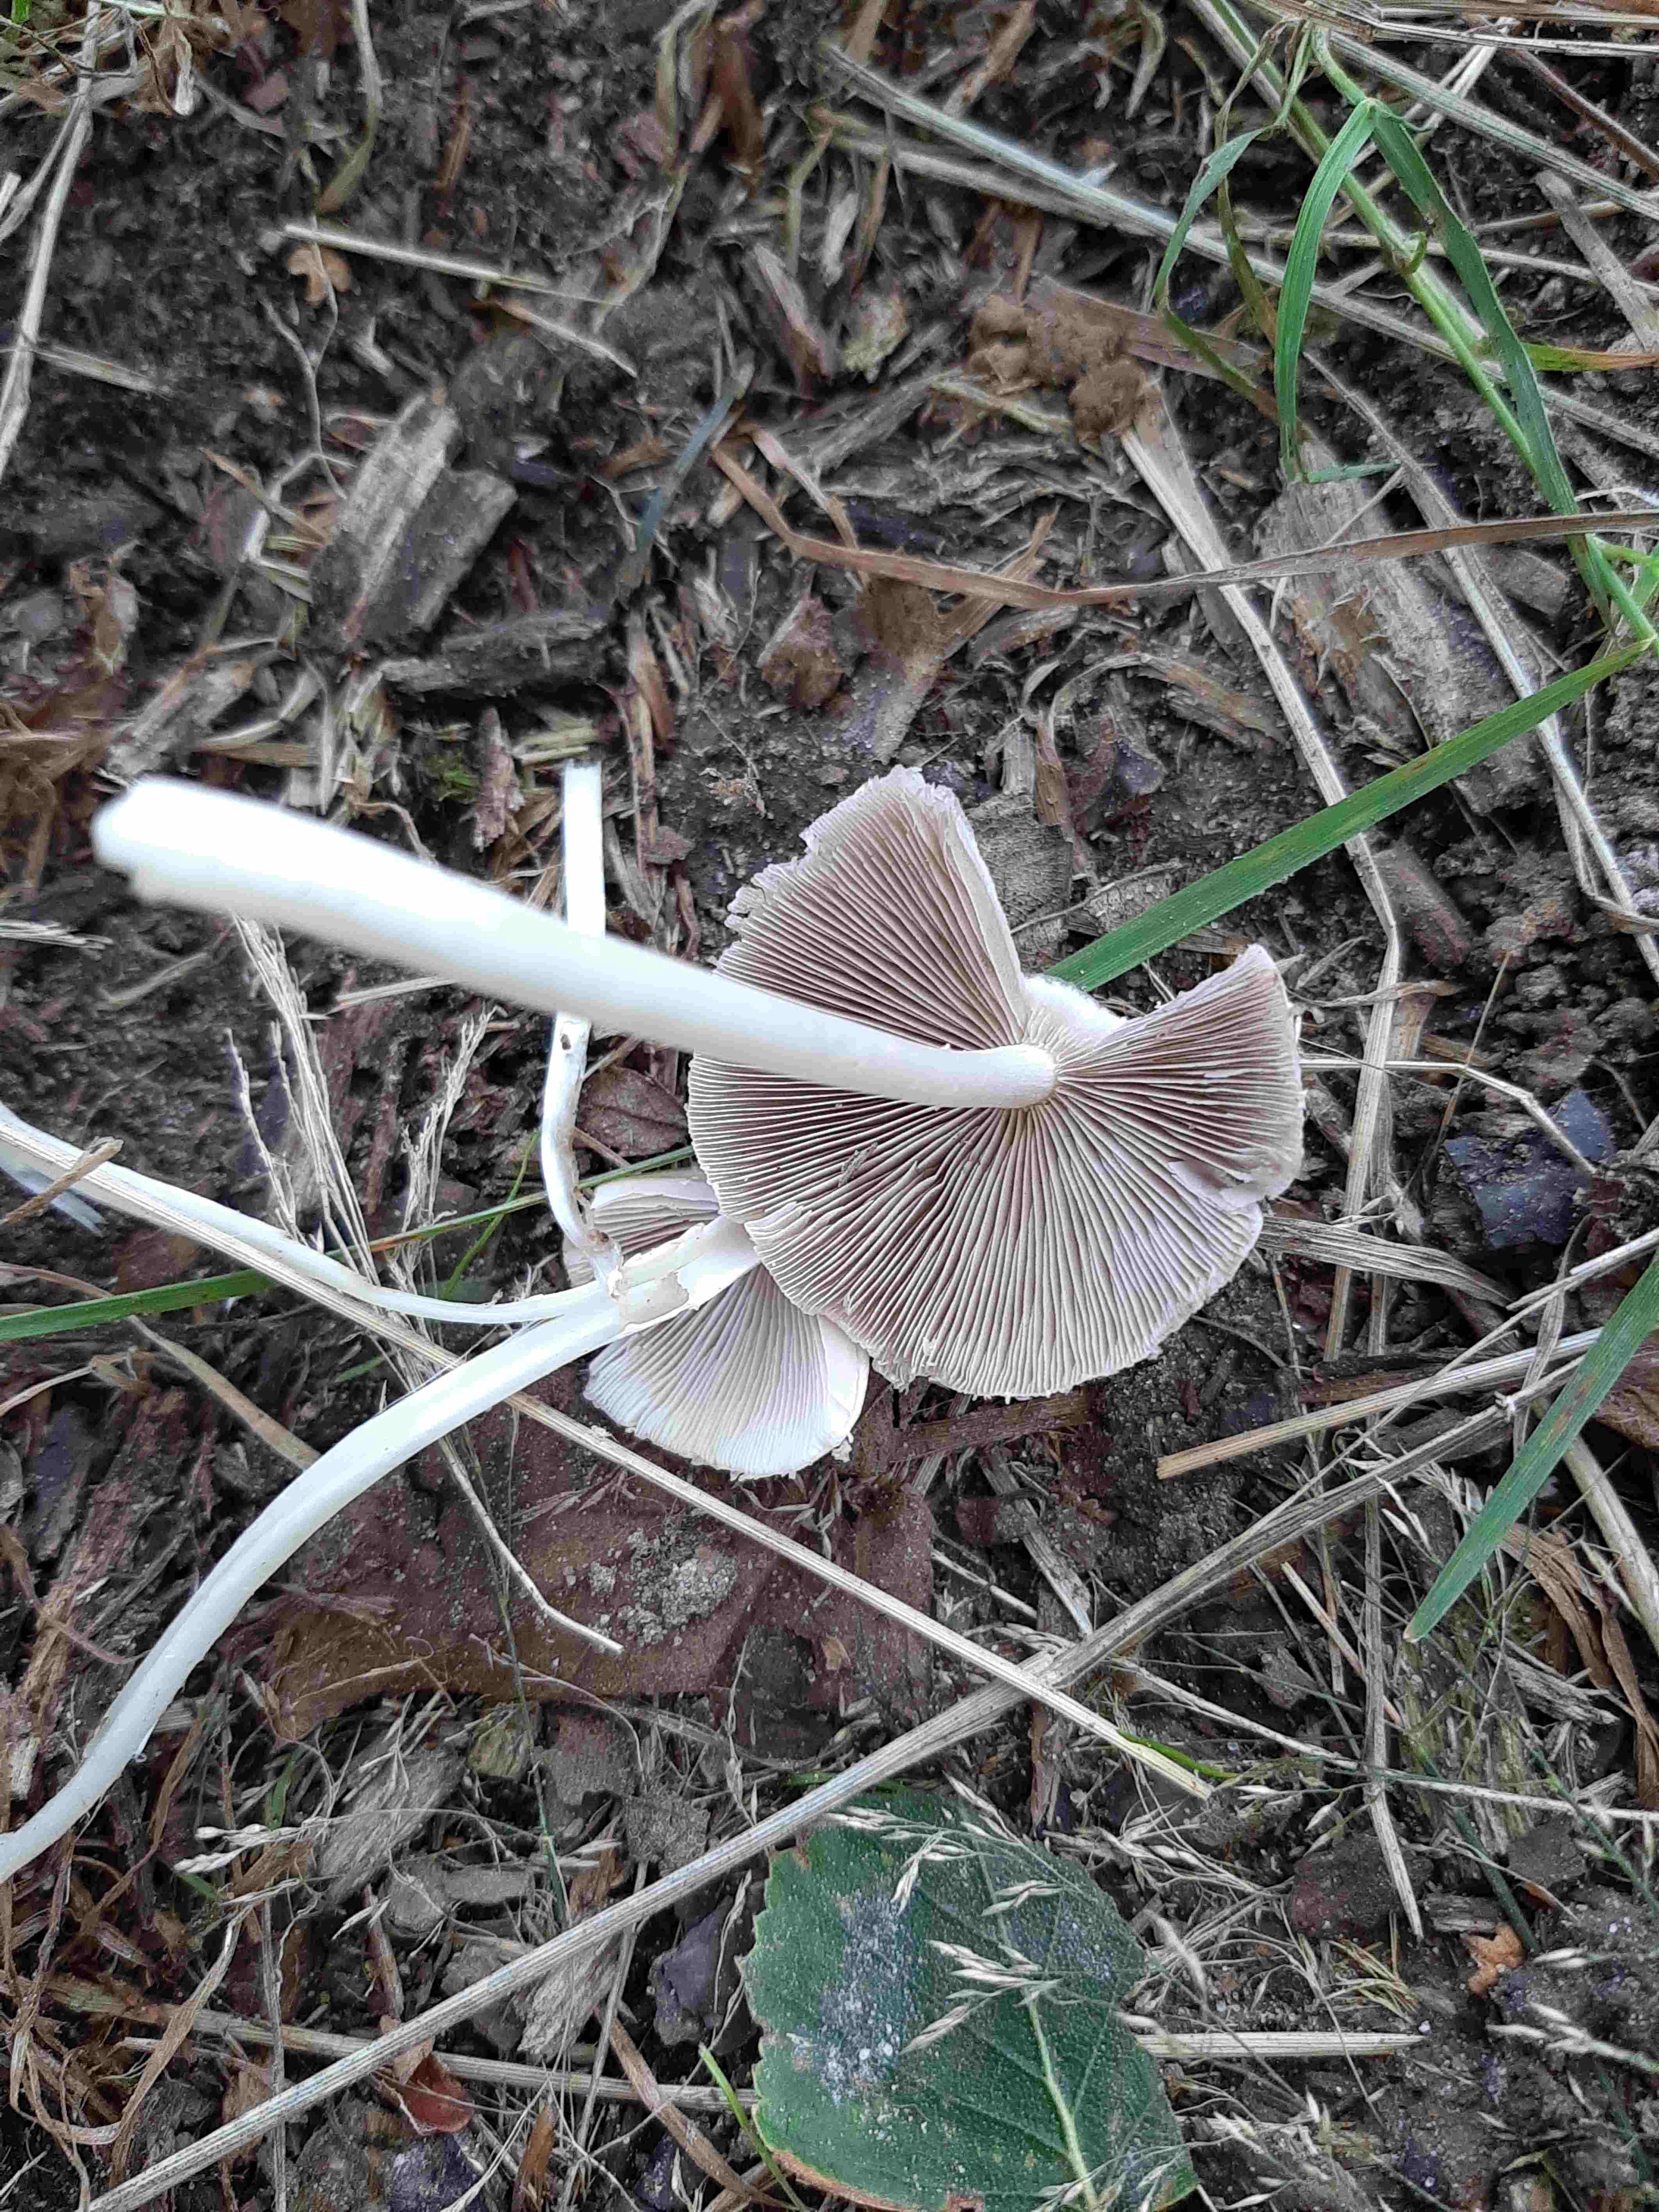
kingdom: Fungi
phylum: Basidiomycota
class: Agaricomycetes
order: Agaricales
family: Psathyrellaceae
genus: Candolleomyces
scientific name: Candolleomyces candolleanus
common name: Candolles mørkhat
